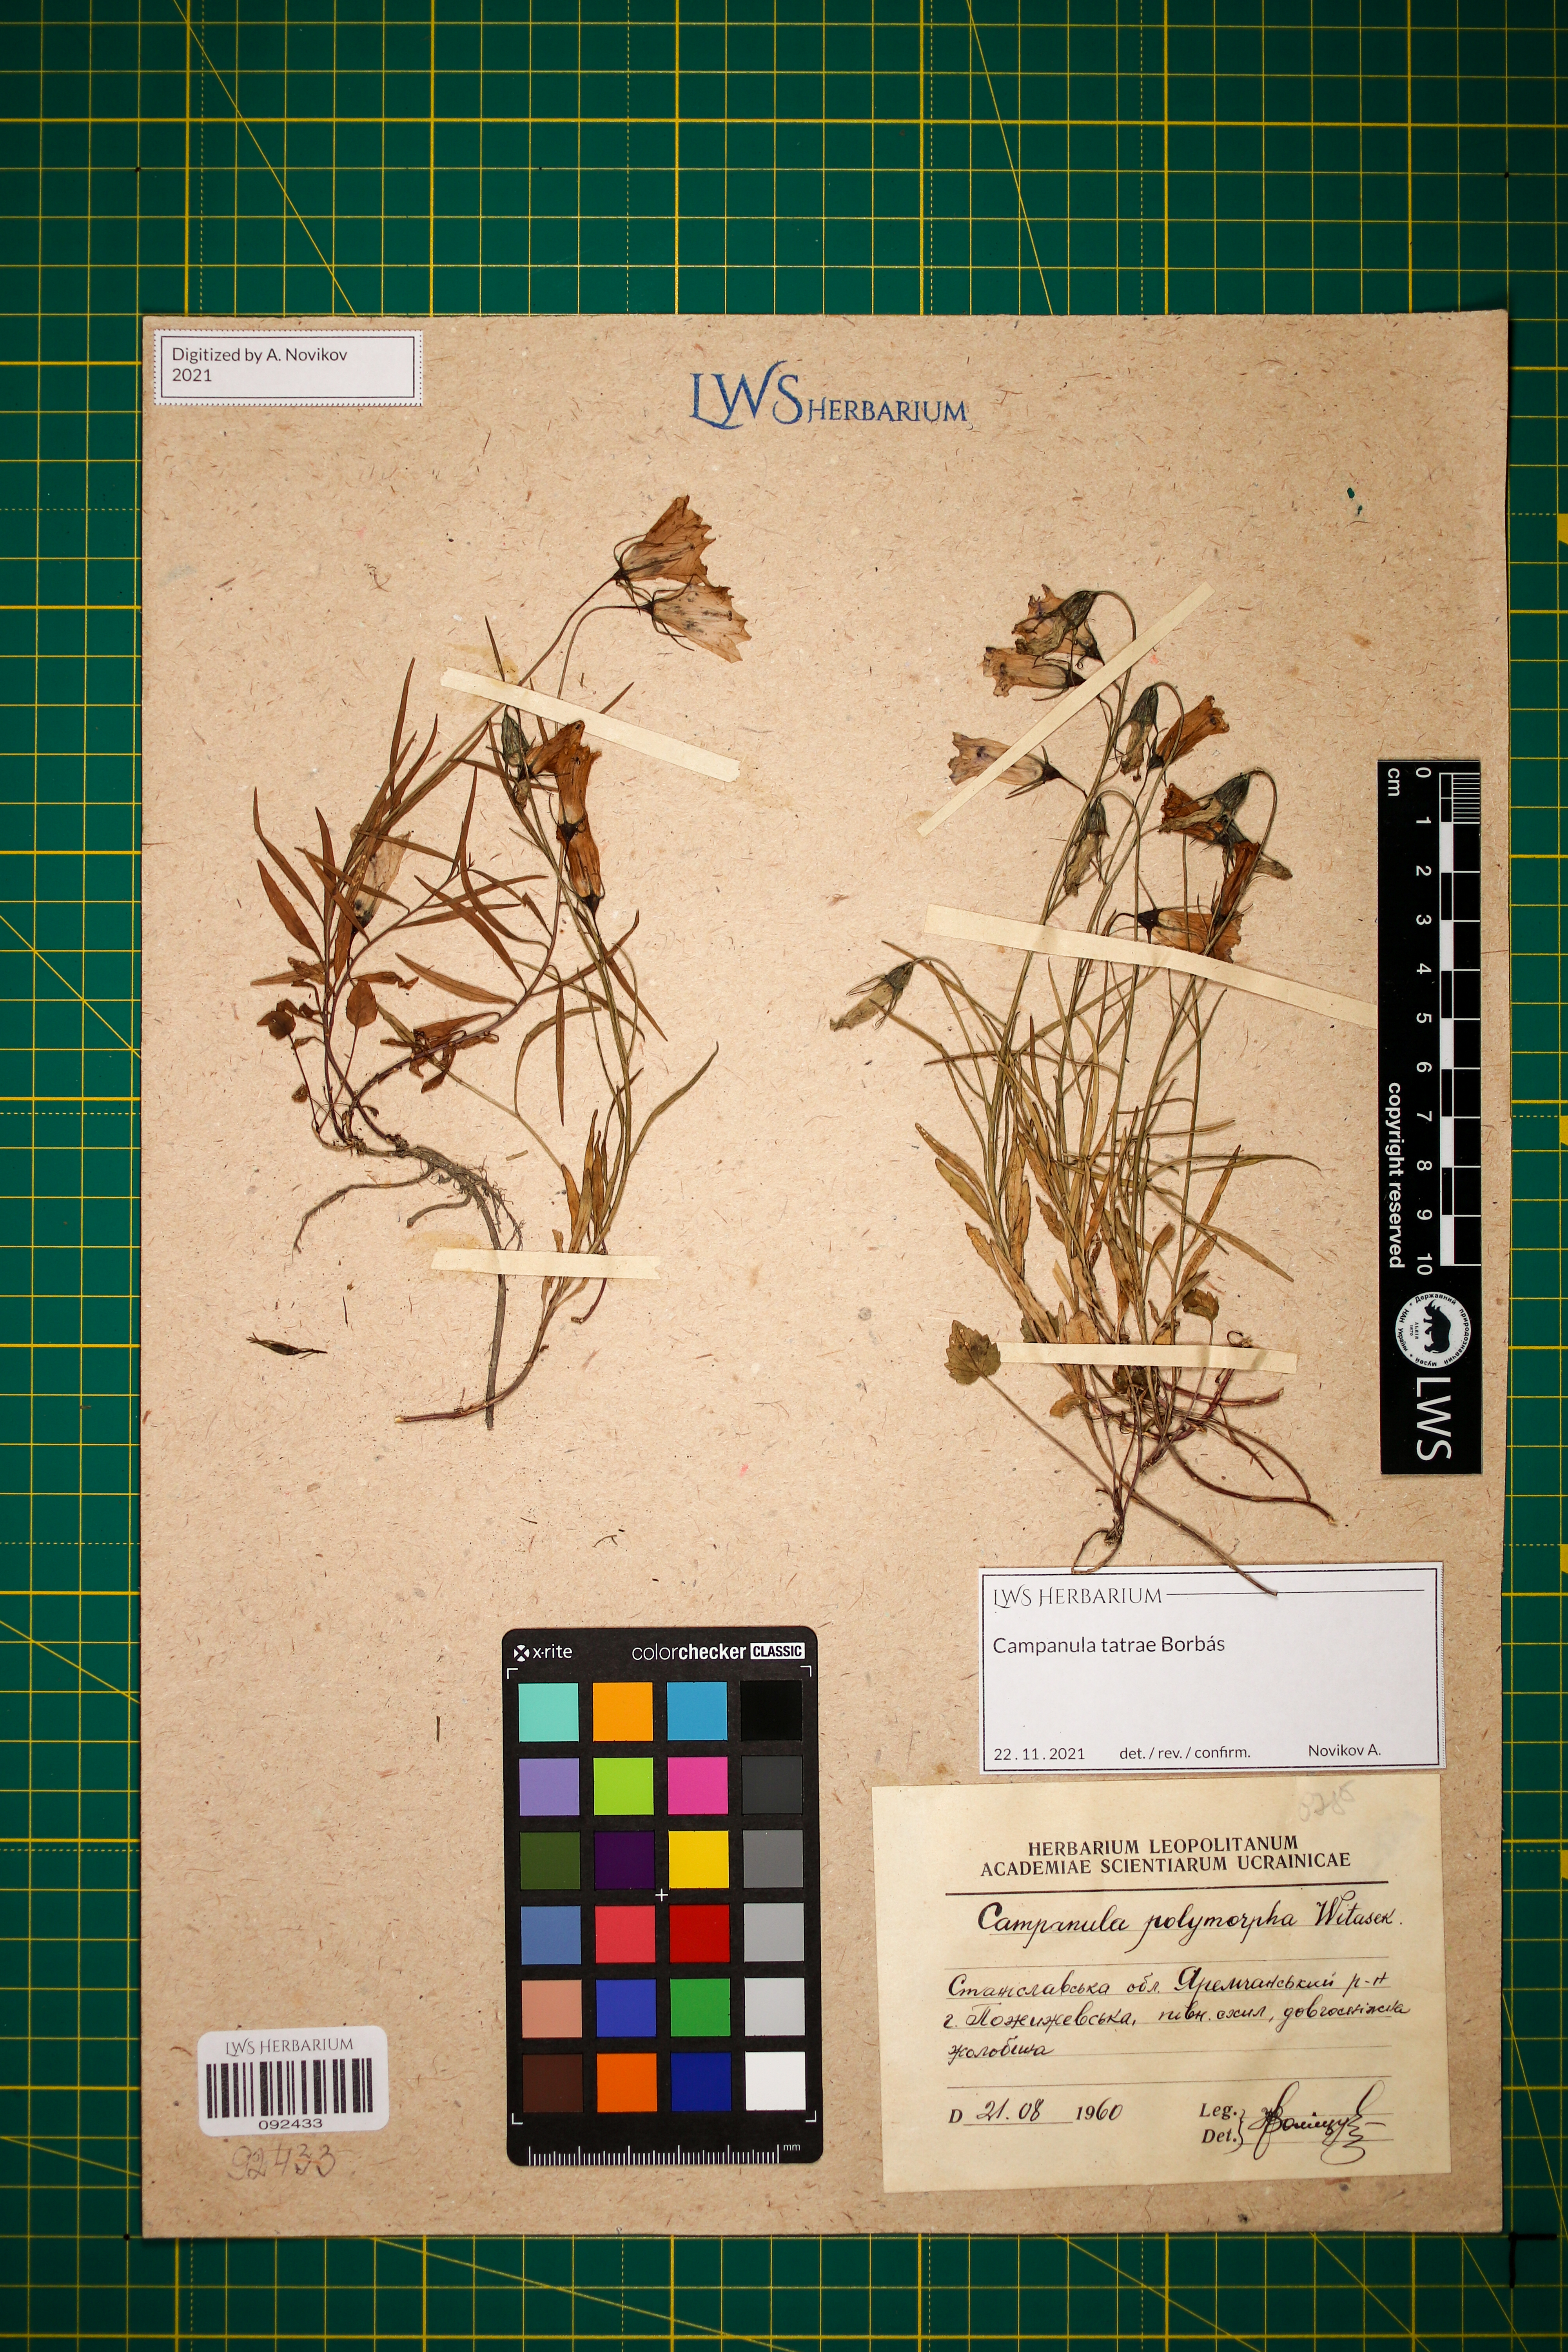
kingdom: Plantae
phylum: Tracheophyta
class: Magnoliopsida
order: Asterales
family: Campanulaceae
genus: Campanula
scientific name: Campanula tatrae
